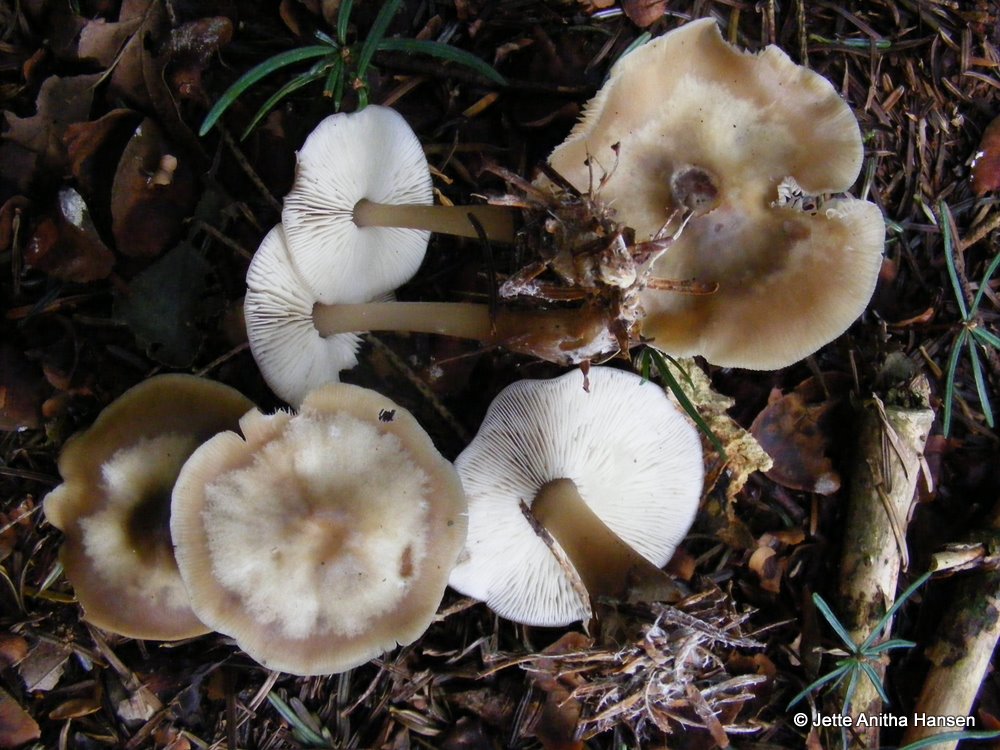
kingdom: Fungi
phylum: Basidiomycota
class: Agaricomycetes
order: Agaricales
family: Omphalotaceae
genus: Rhodocollybia
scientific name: Rhodocollybia asema
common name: horngrå fladhat
